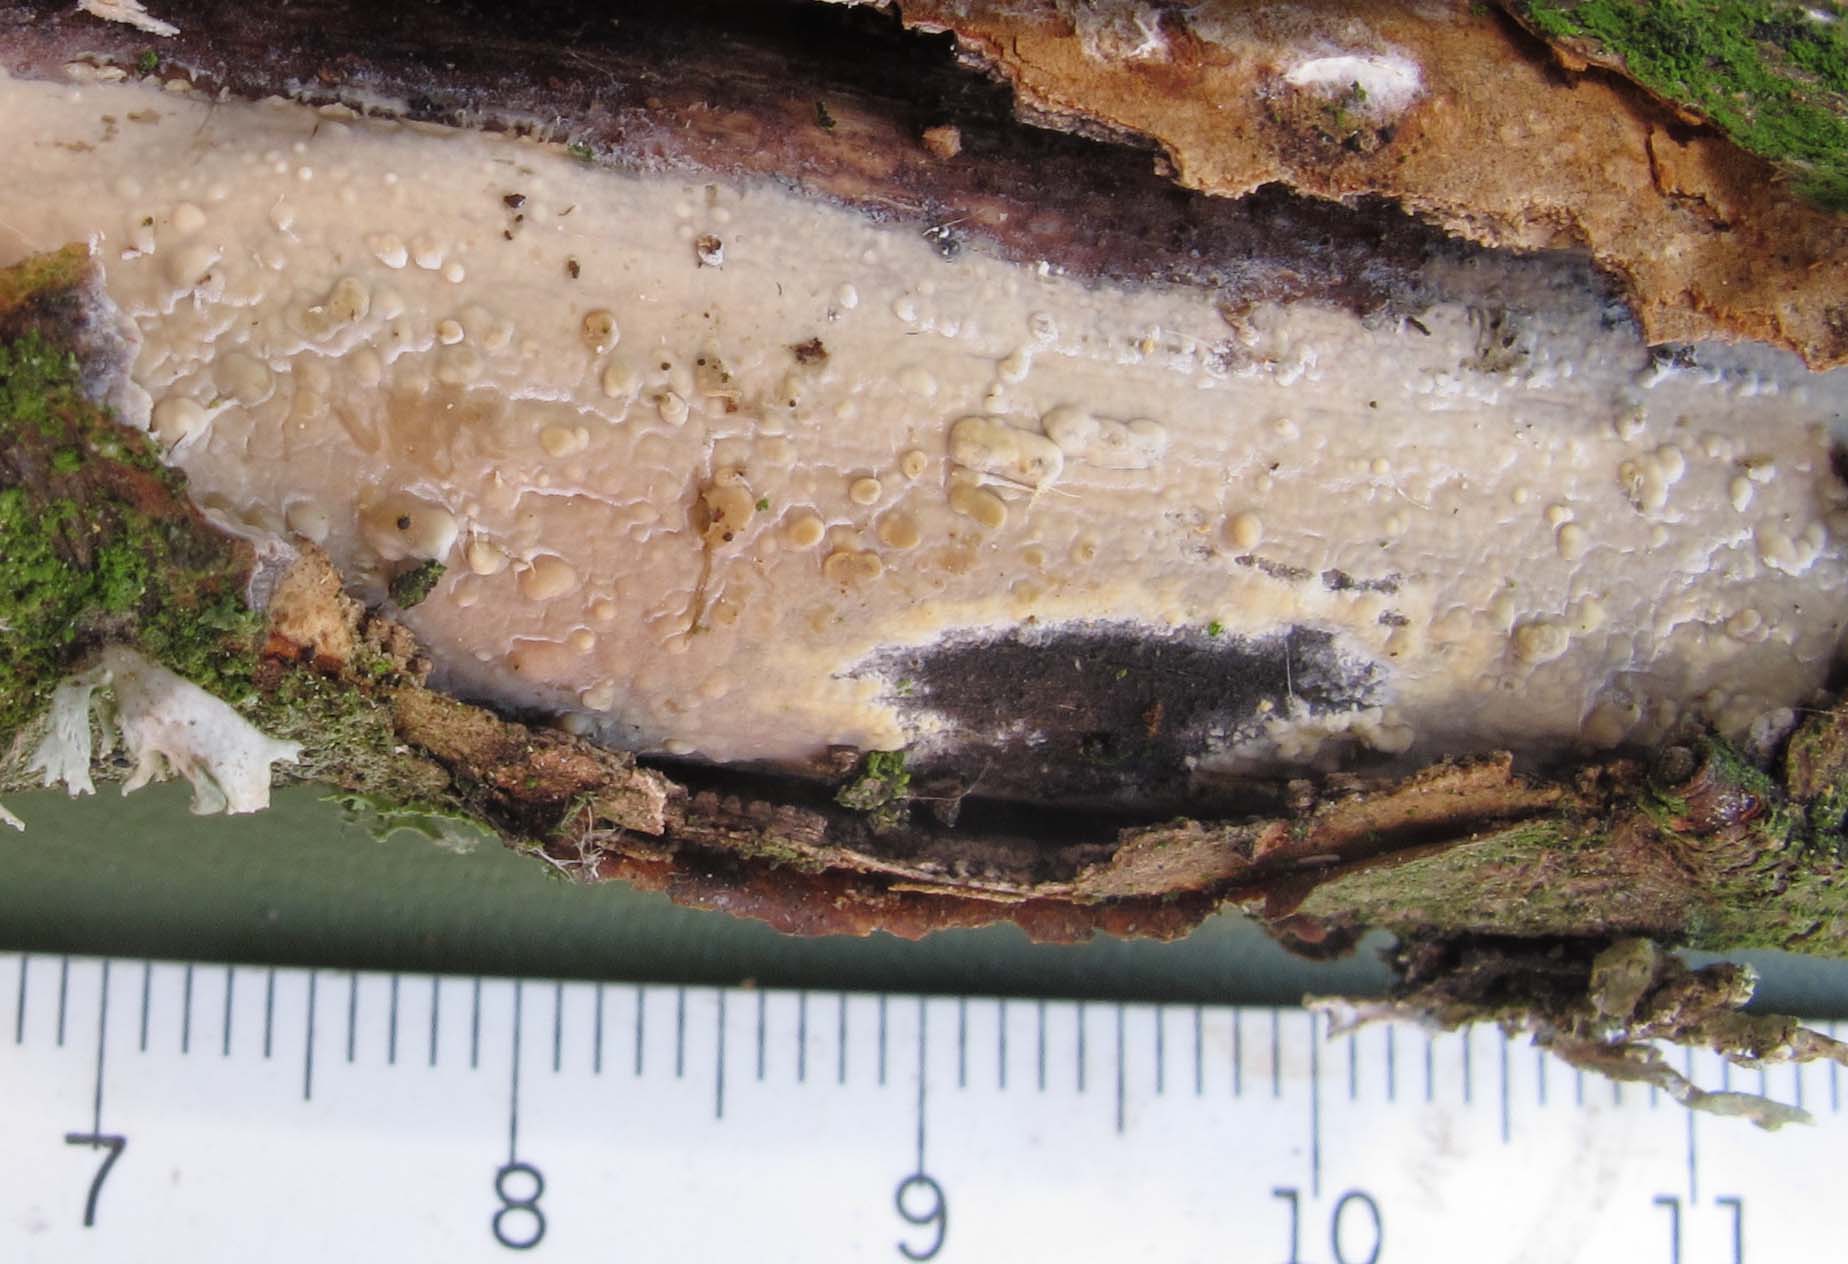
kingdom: Fungi
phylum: Basidiomycota
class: Agaricomycetes
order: Russulales
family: Stereaceae
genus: Gloeocystidiellum
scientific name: Gloeocystidiellum porosum
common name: mælkehvid olieskind
